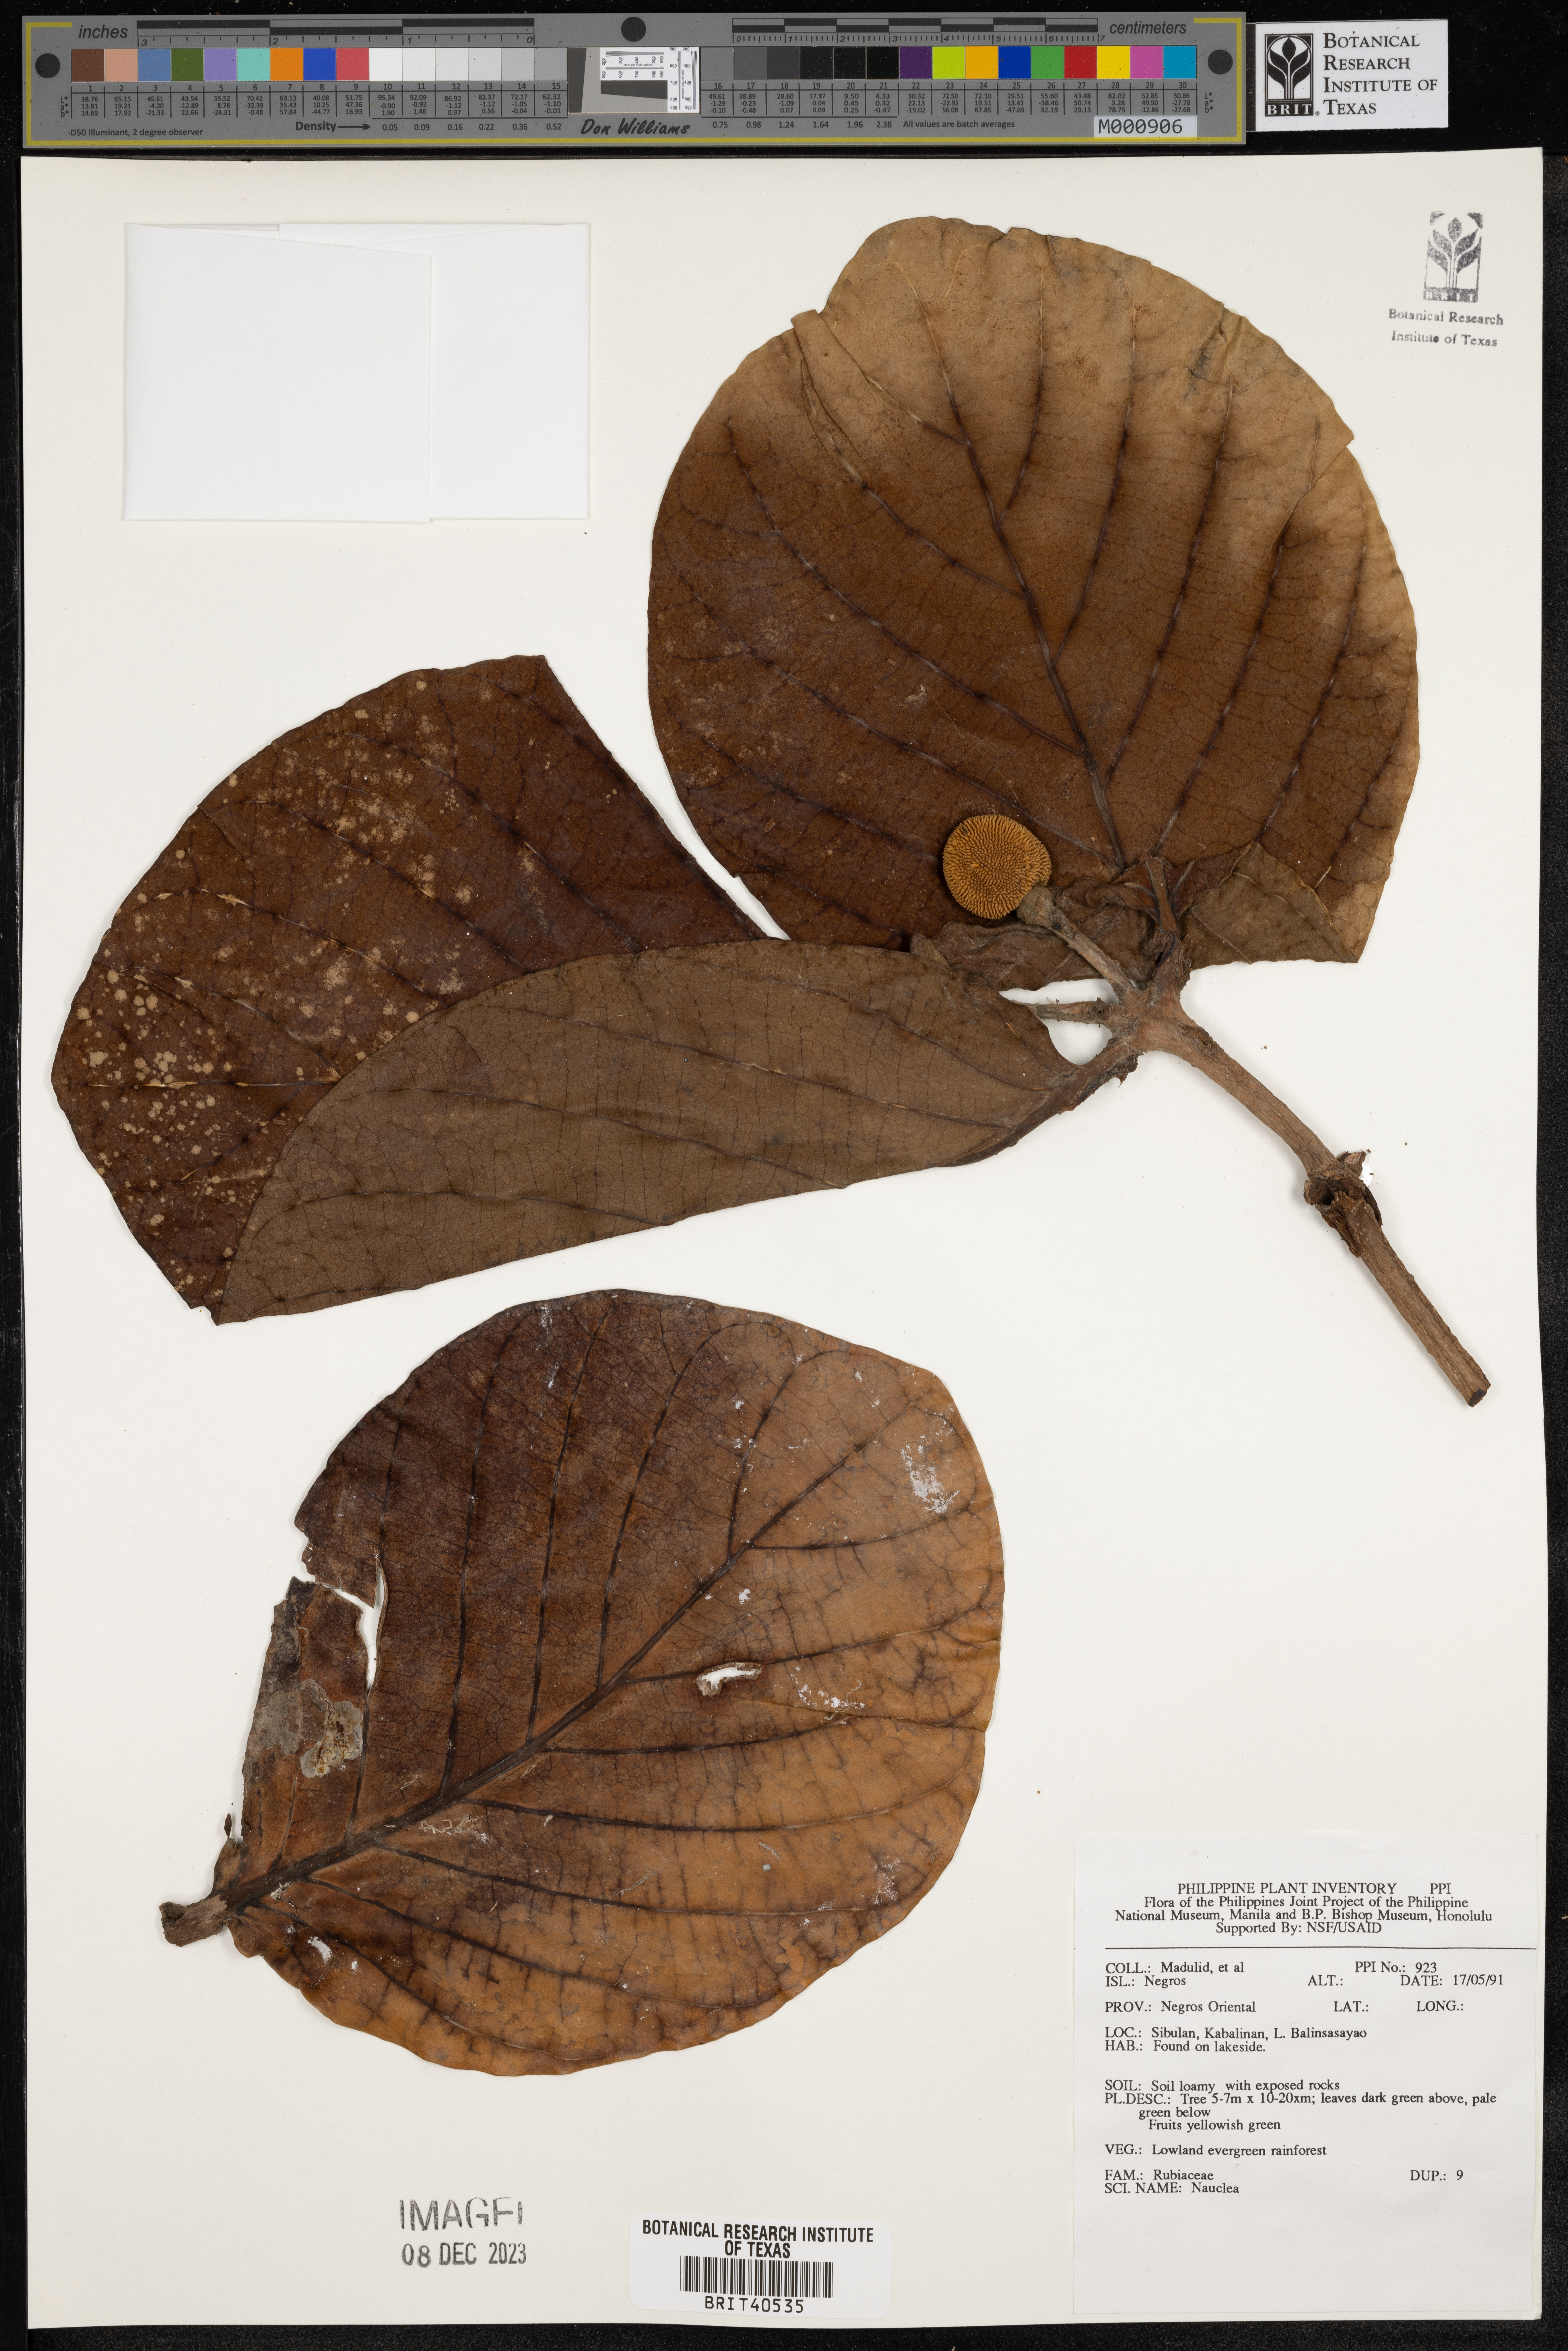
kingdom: Plantae
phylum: Tracheophyta
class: Magnoliopsida
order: Gentianales
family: Rubiaceae
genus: Nauclea
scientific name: Nauclea
